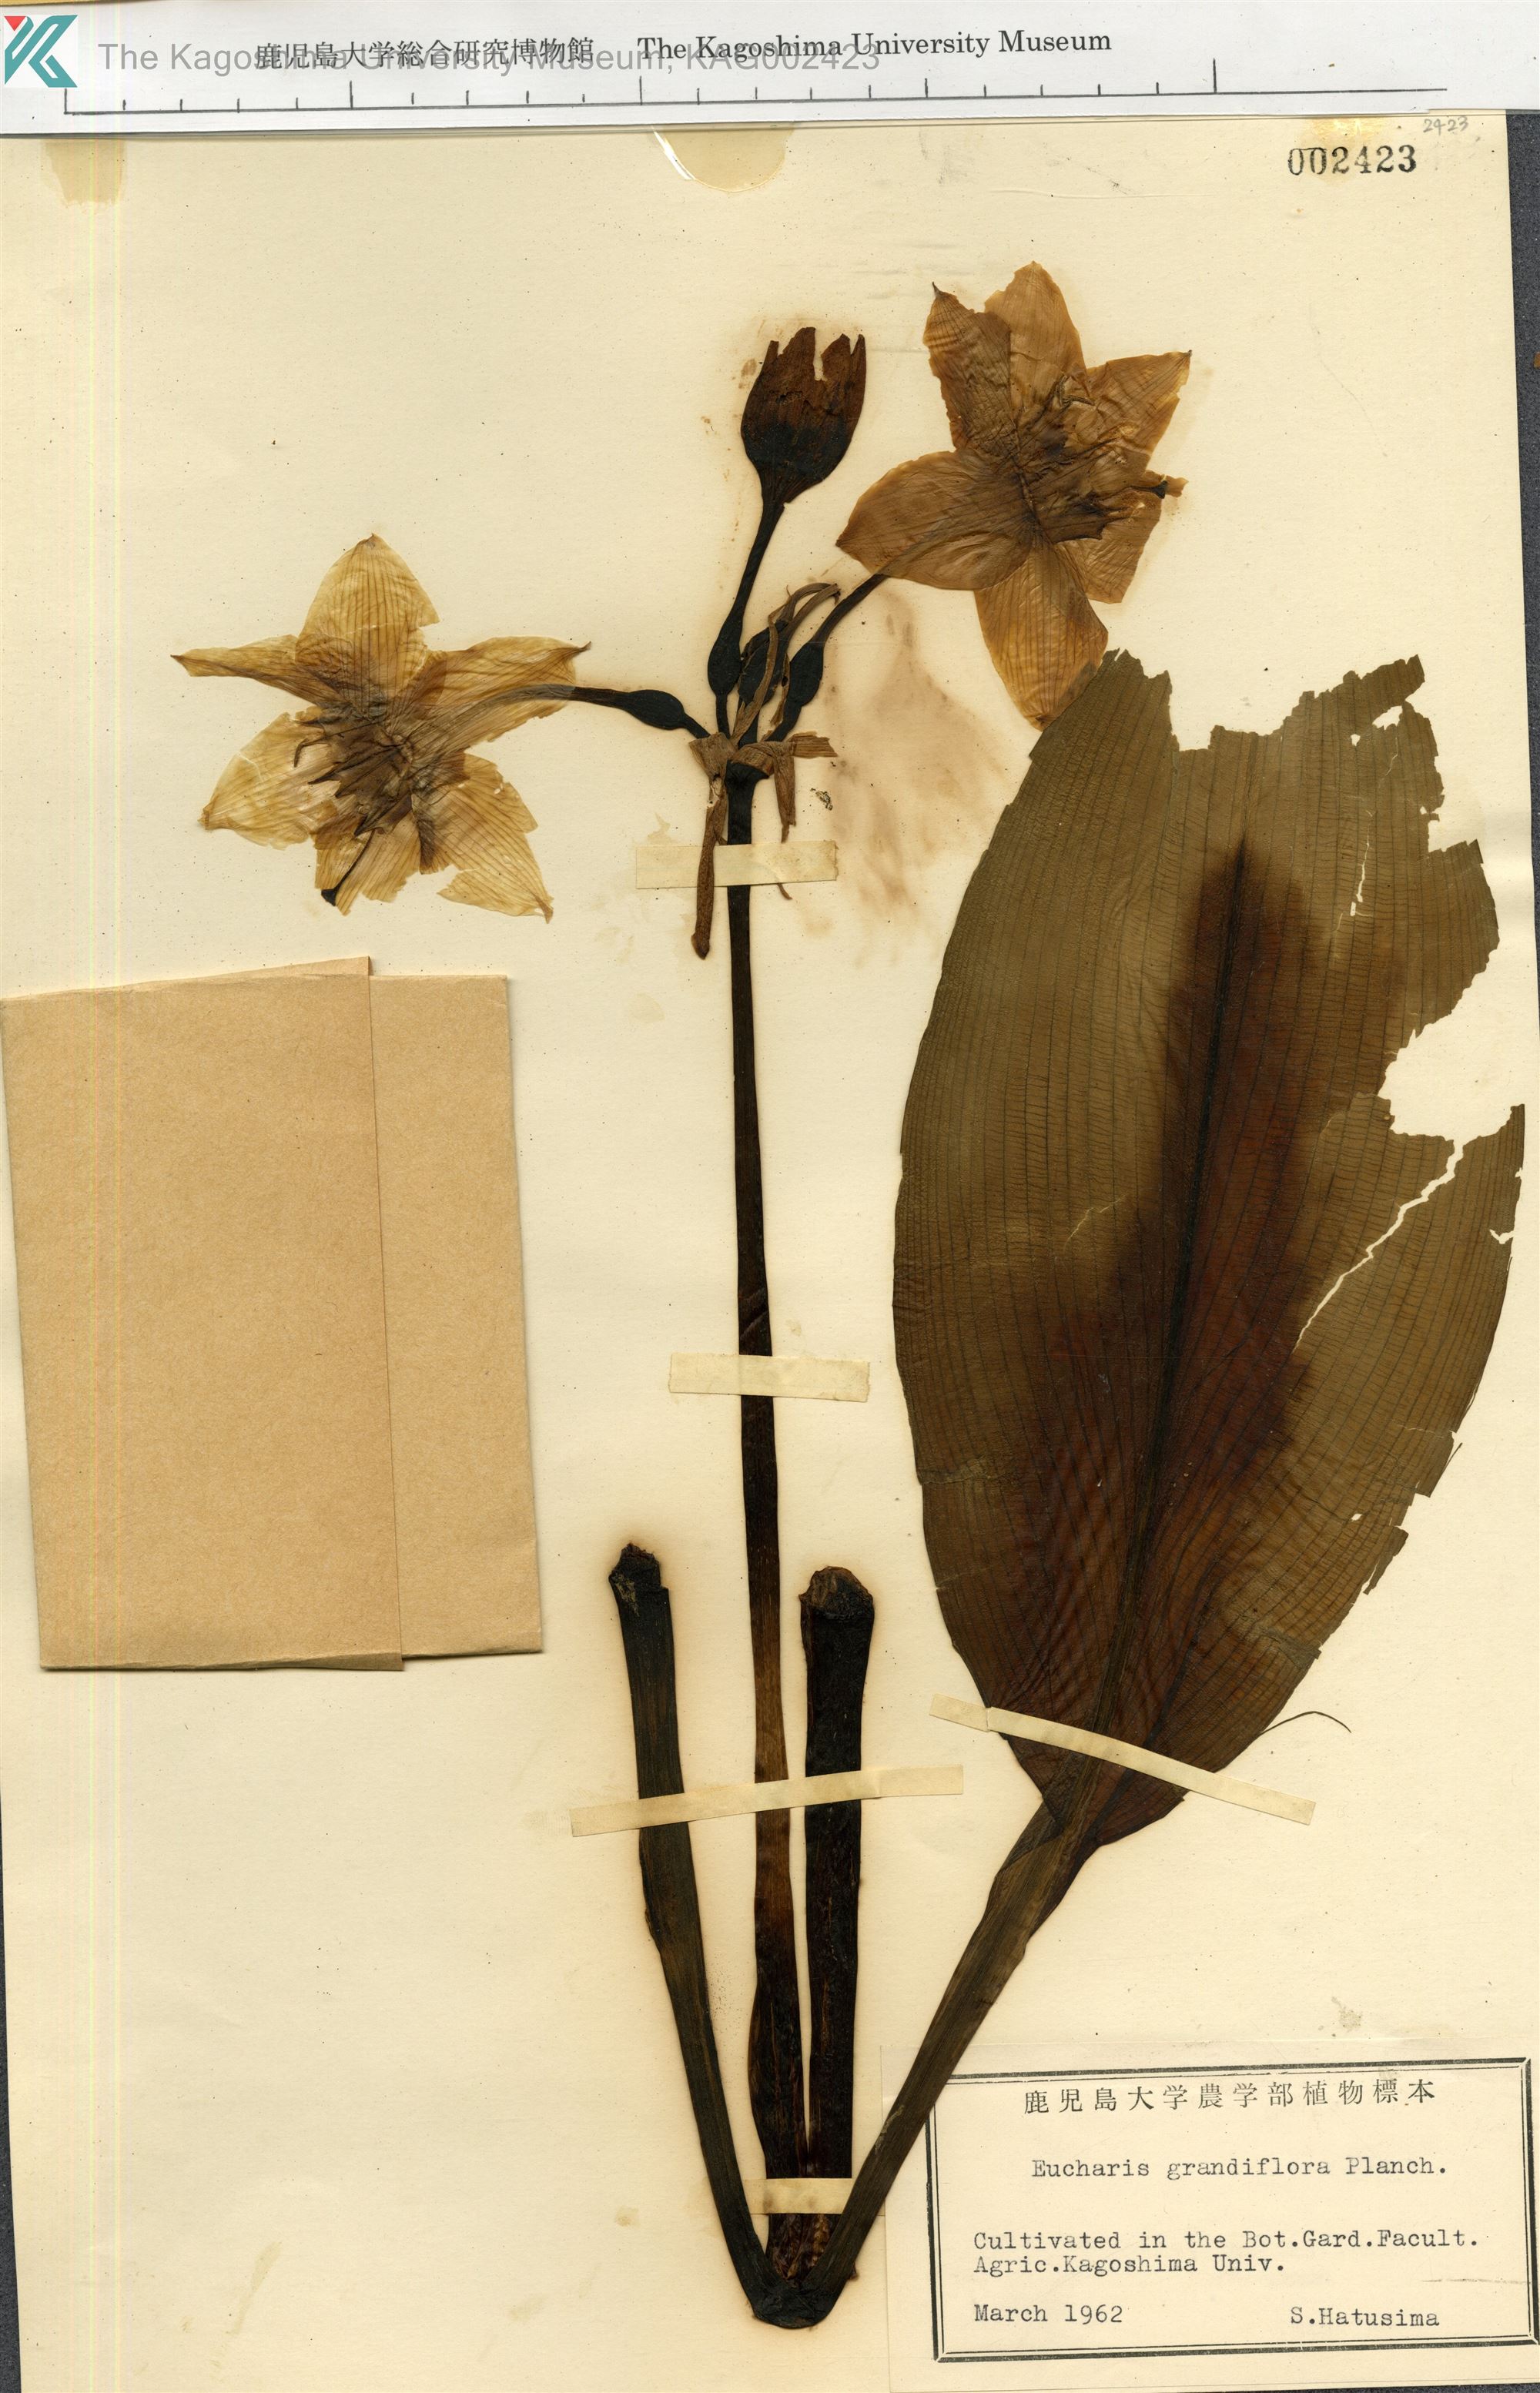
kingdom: Plantae
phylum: Tracheophyta
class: Liliopsida
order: Asparagales
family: Amaryllidaceae
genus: Urceolina
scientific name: Urceolina grandiflora
